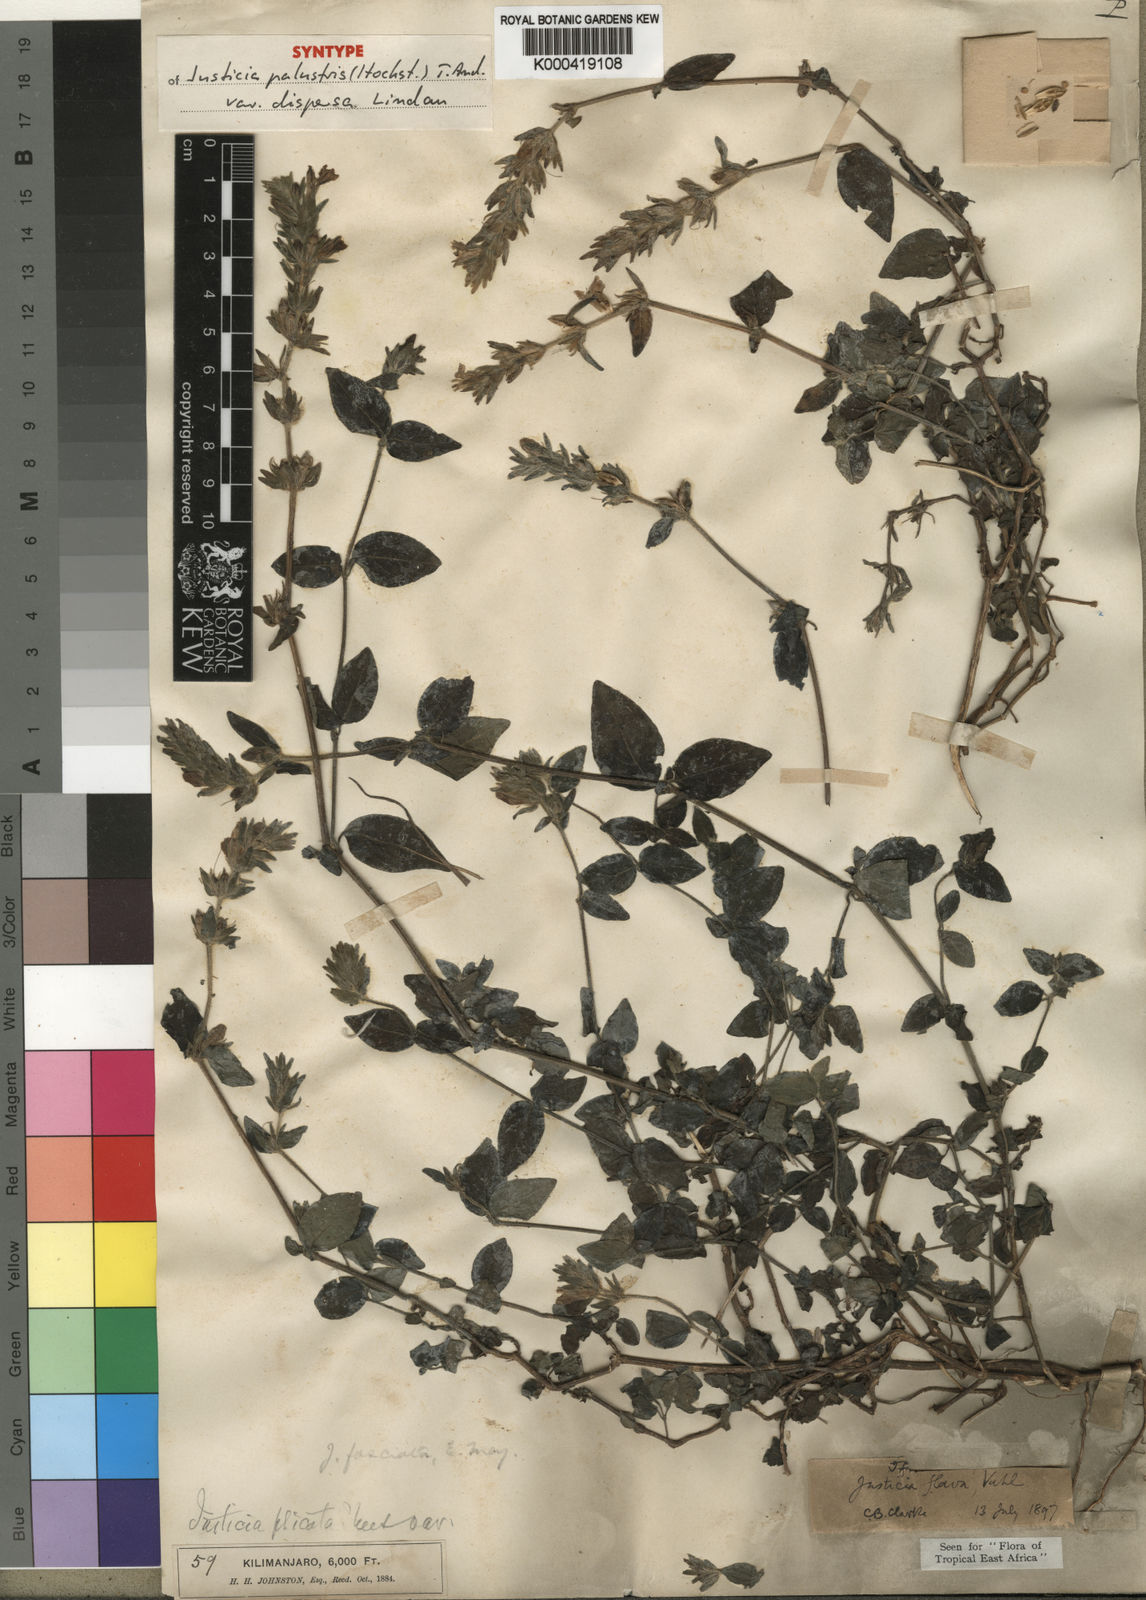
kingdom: Plantae
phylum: Tracheophyta
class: Magnoliopsida
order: Lamiales
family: Acanthaceae
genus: Justicia
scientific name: Justicia flava
